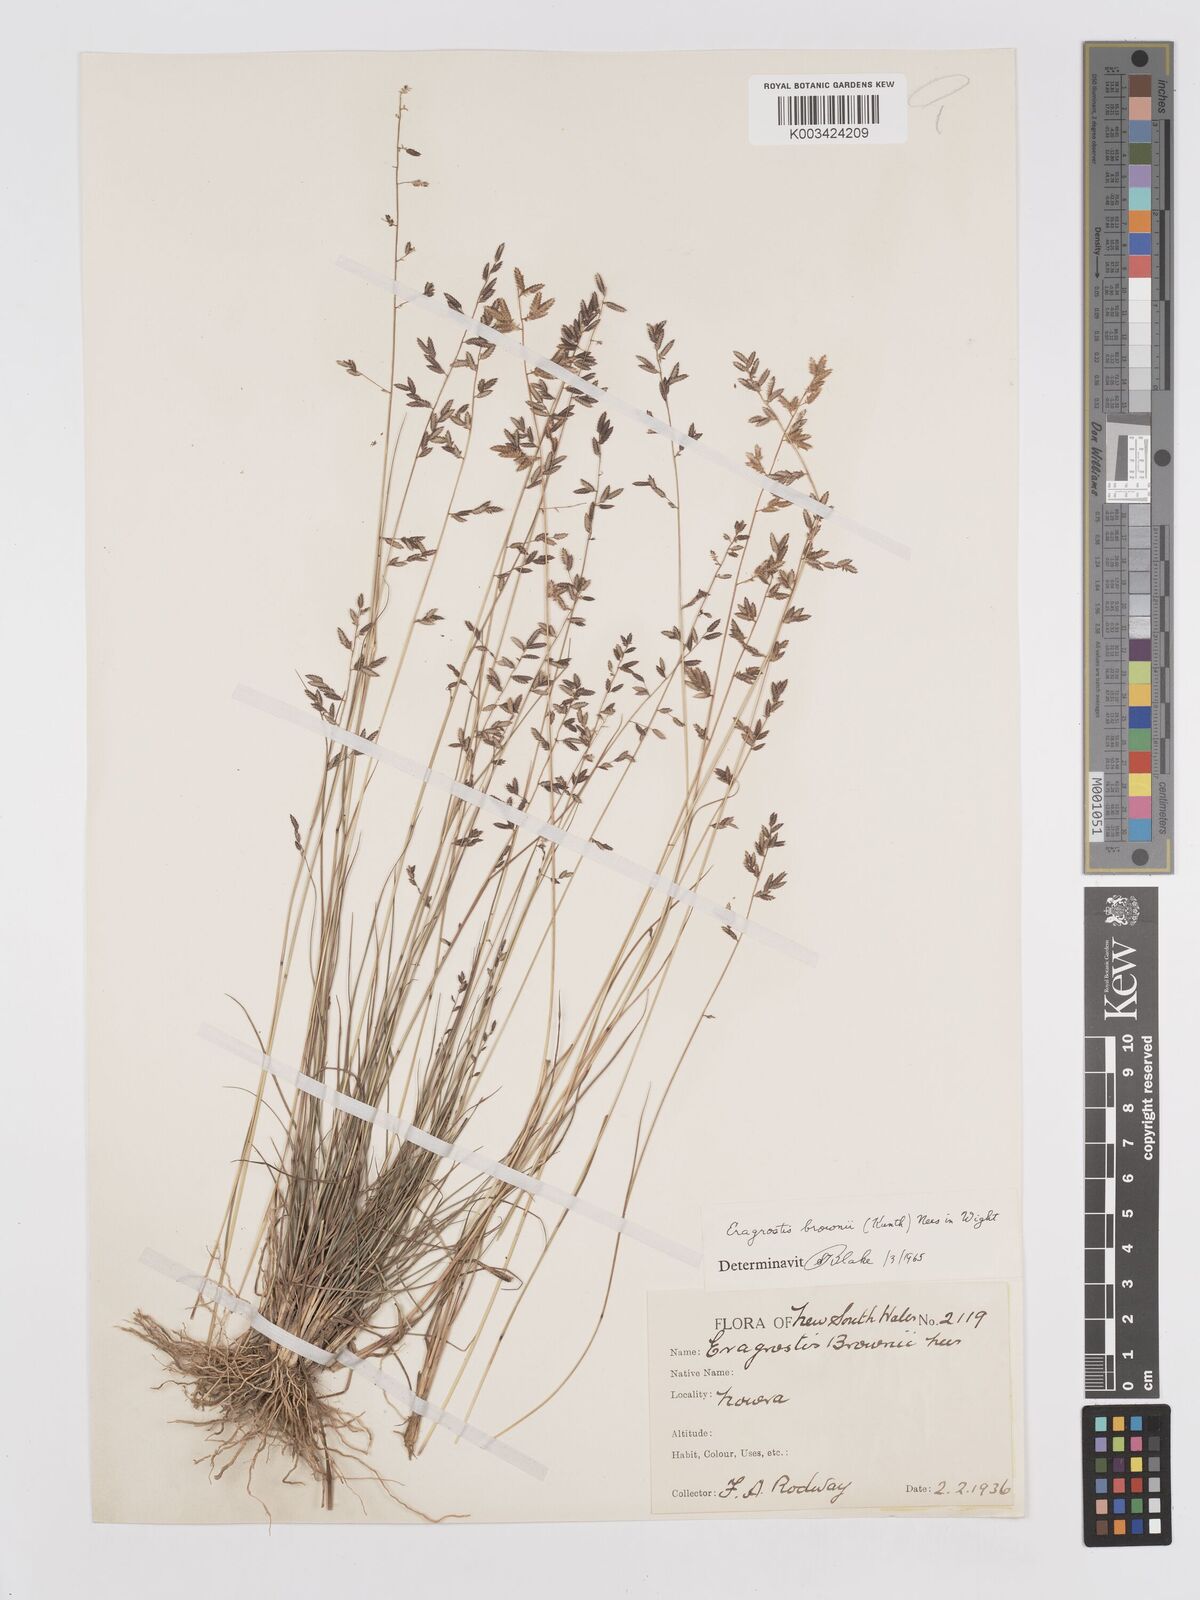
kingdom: Plantae
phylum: Tracheophyta
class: Liliopsida
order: Poales
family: Poaceae
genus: Eragrostis
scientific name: Eragrostis brownii
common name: Lovegrass
